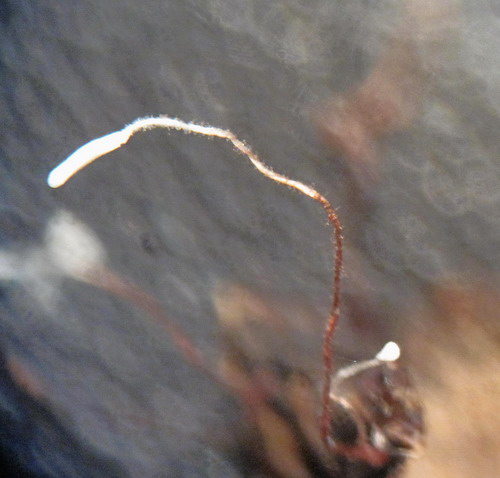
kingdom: Fungi
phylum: Basidiomycota
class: Agaricomycetes
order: Agaricales
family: Typhulaceae
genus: Typhula
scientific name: Typhula erythropus
